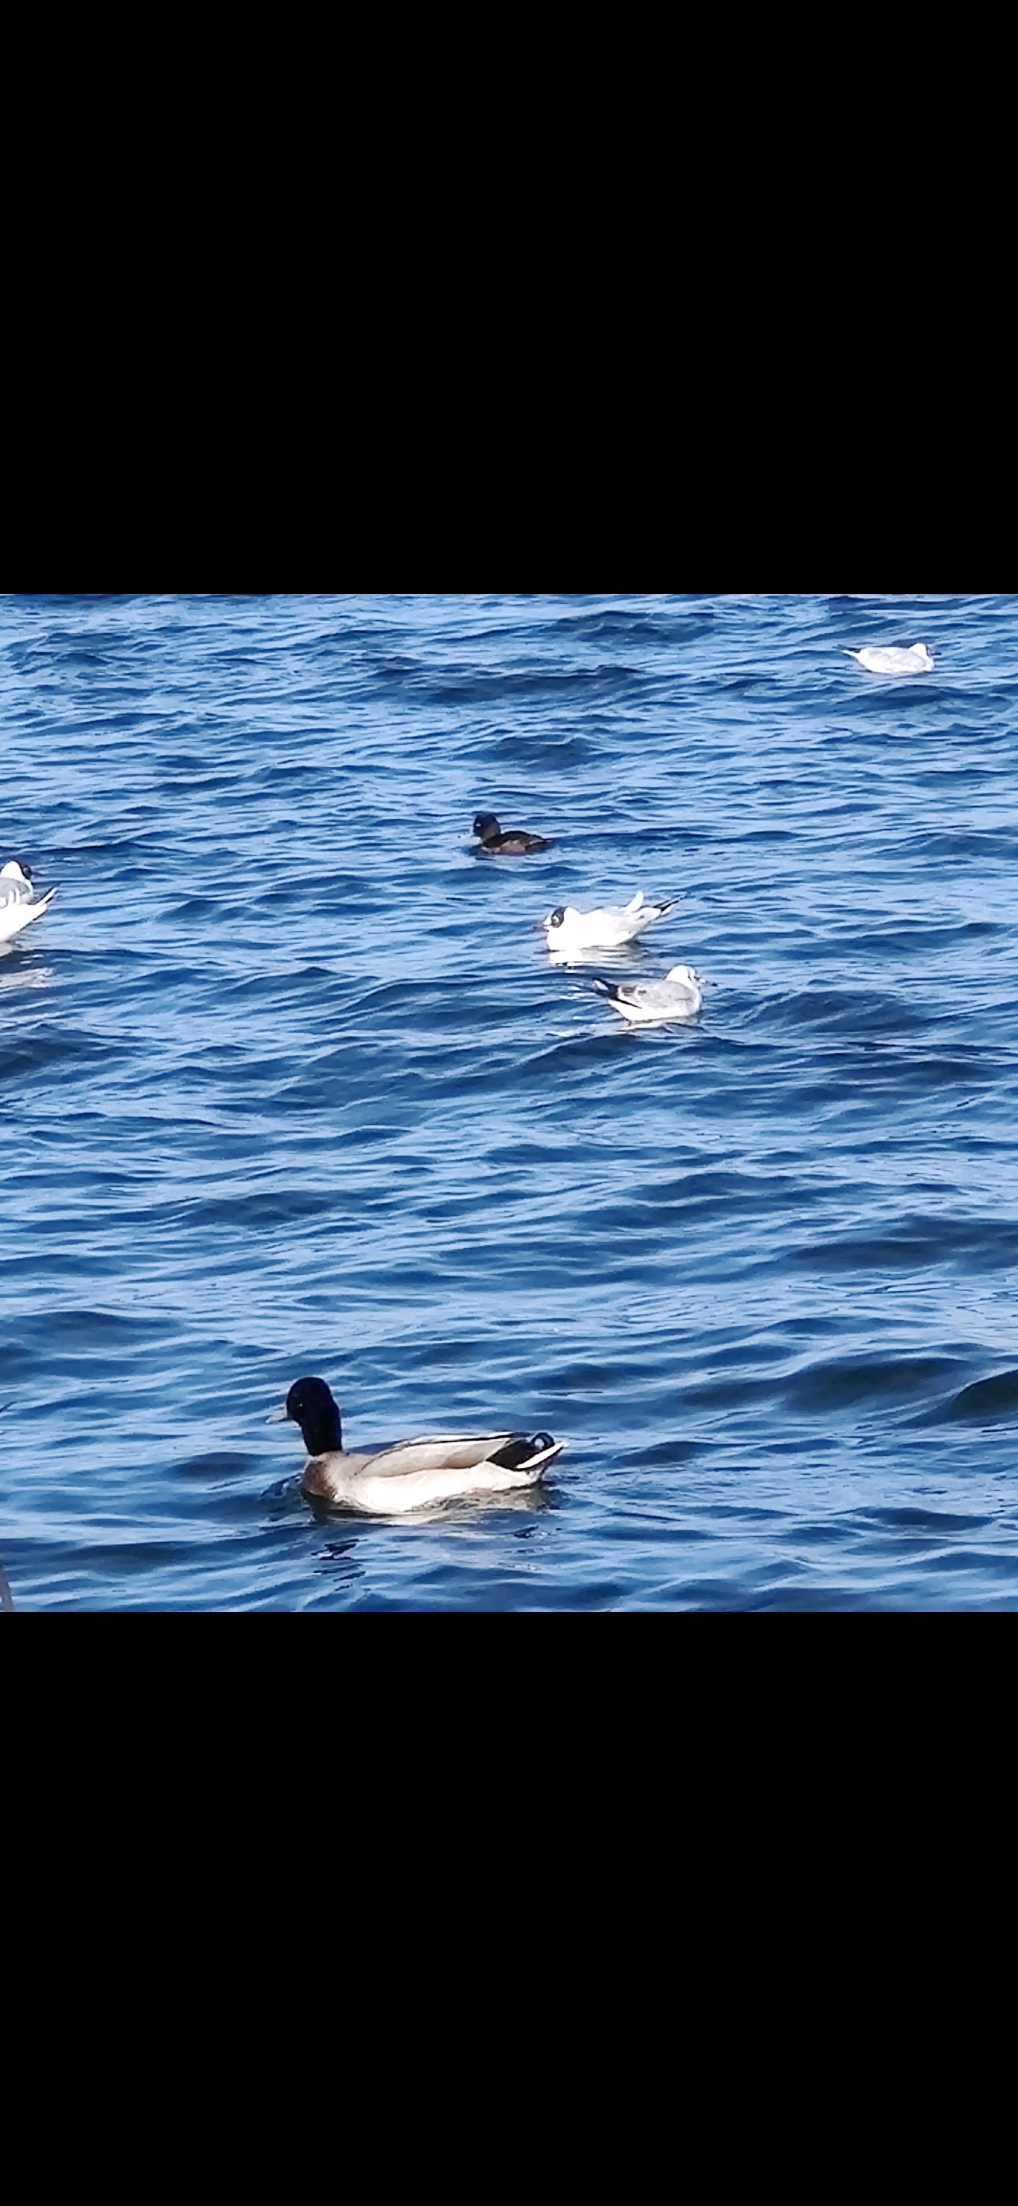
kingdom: Animalia
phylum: Chordata
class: Aves
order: Anseriformes
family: Anatidae
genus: Aythya
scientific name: Aythya fuligula
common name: Troldand
